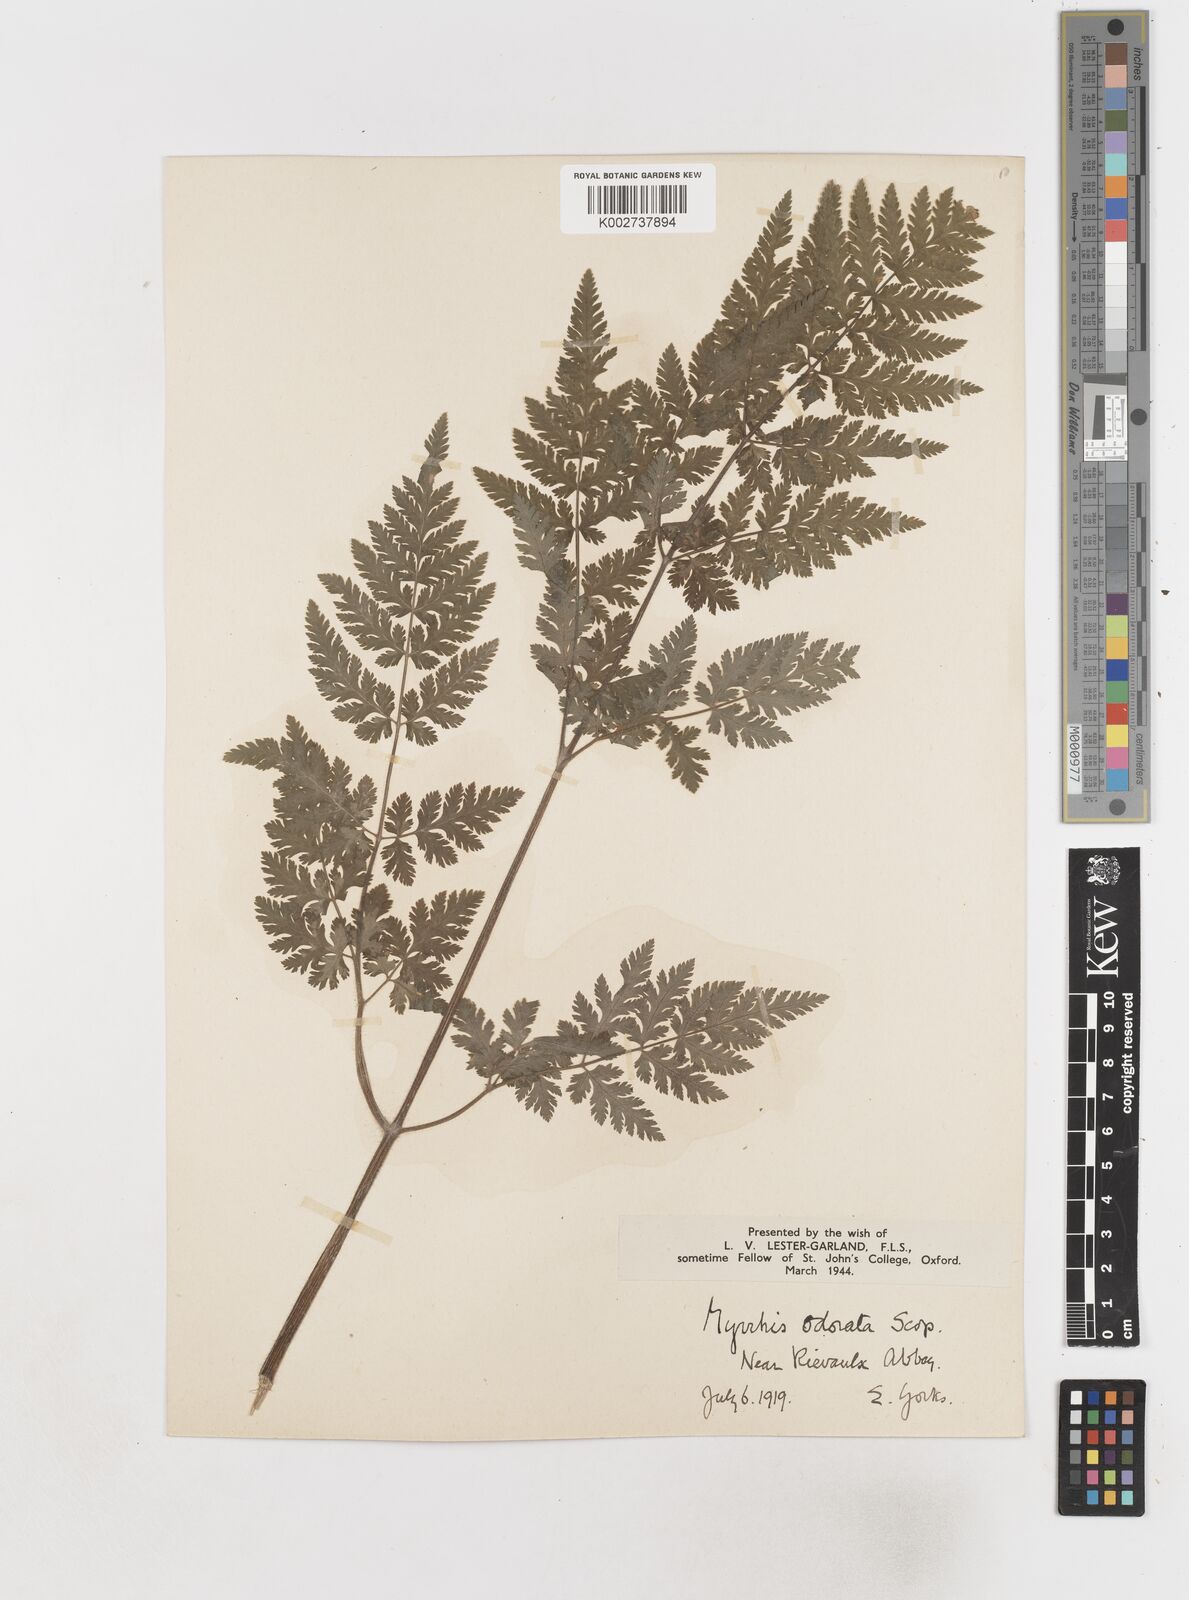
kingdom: Plantae
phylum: Tracheophyta
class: Magnoliopsida
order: Apiales
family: Apiaceae
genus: Myrrhis
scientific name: Myrrhis odorata
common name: Sweet cicely
